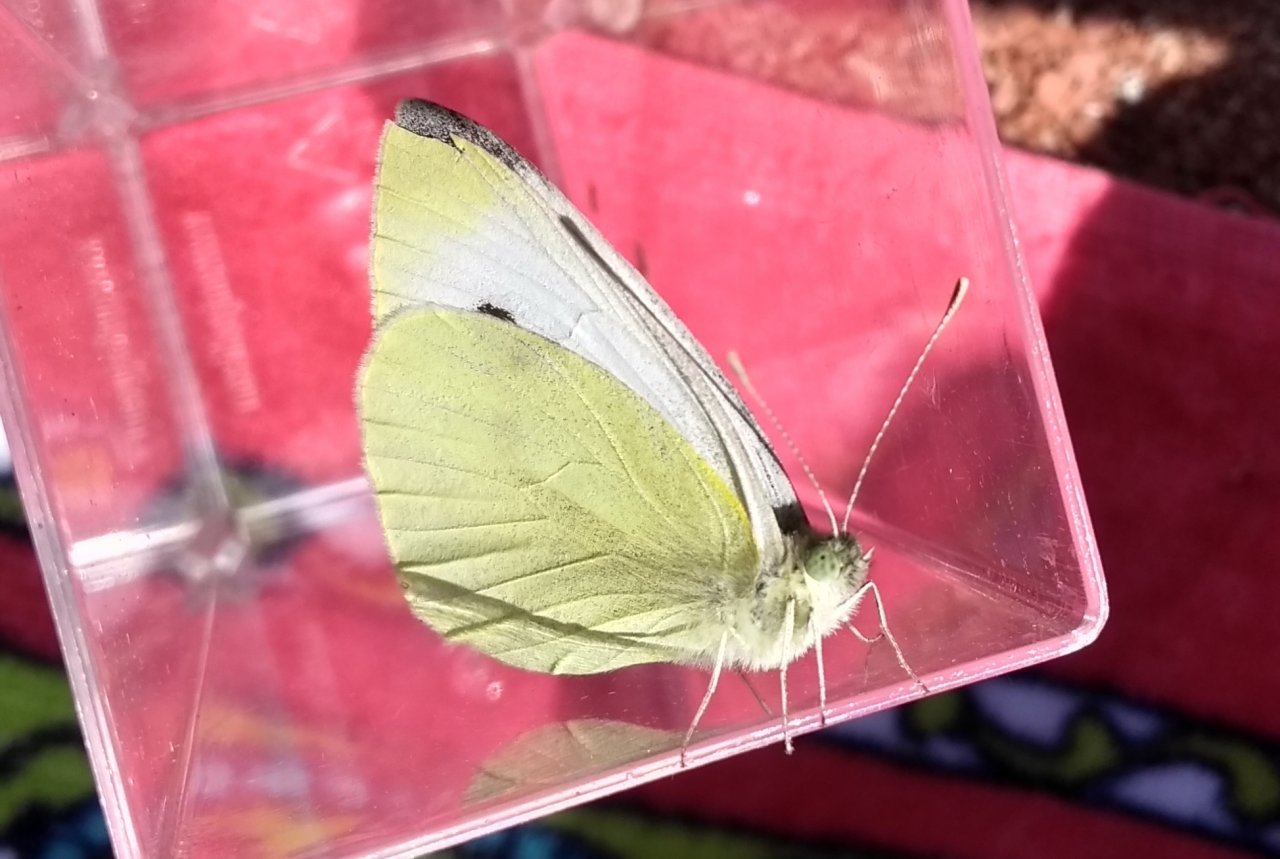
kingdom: Animalia
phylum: Arthropoda
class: Insecta
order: Lepidoptera
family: Pieridae
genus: Pieris
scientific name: Pieris rapae
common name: Cabbage White
